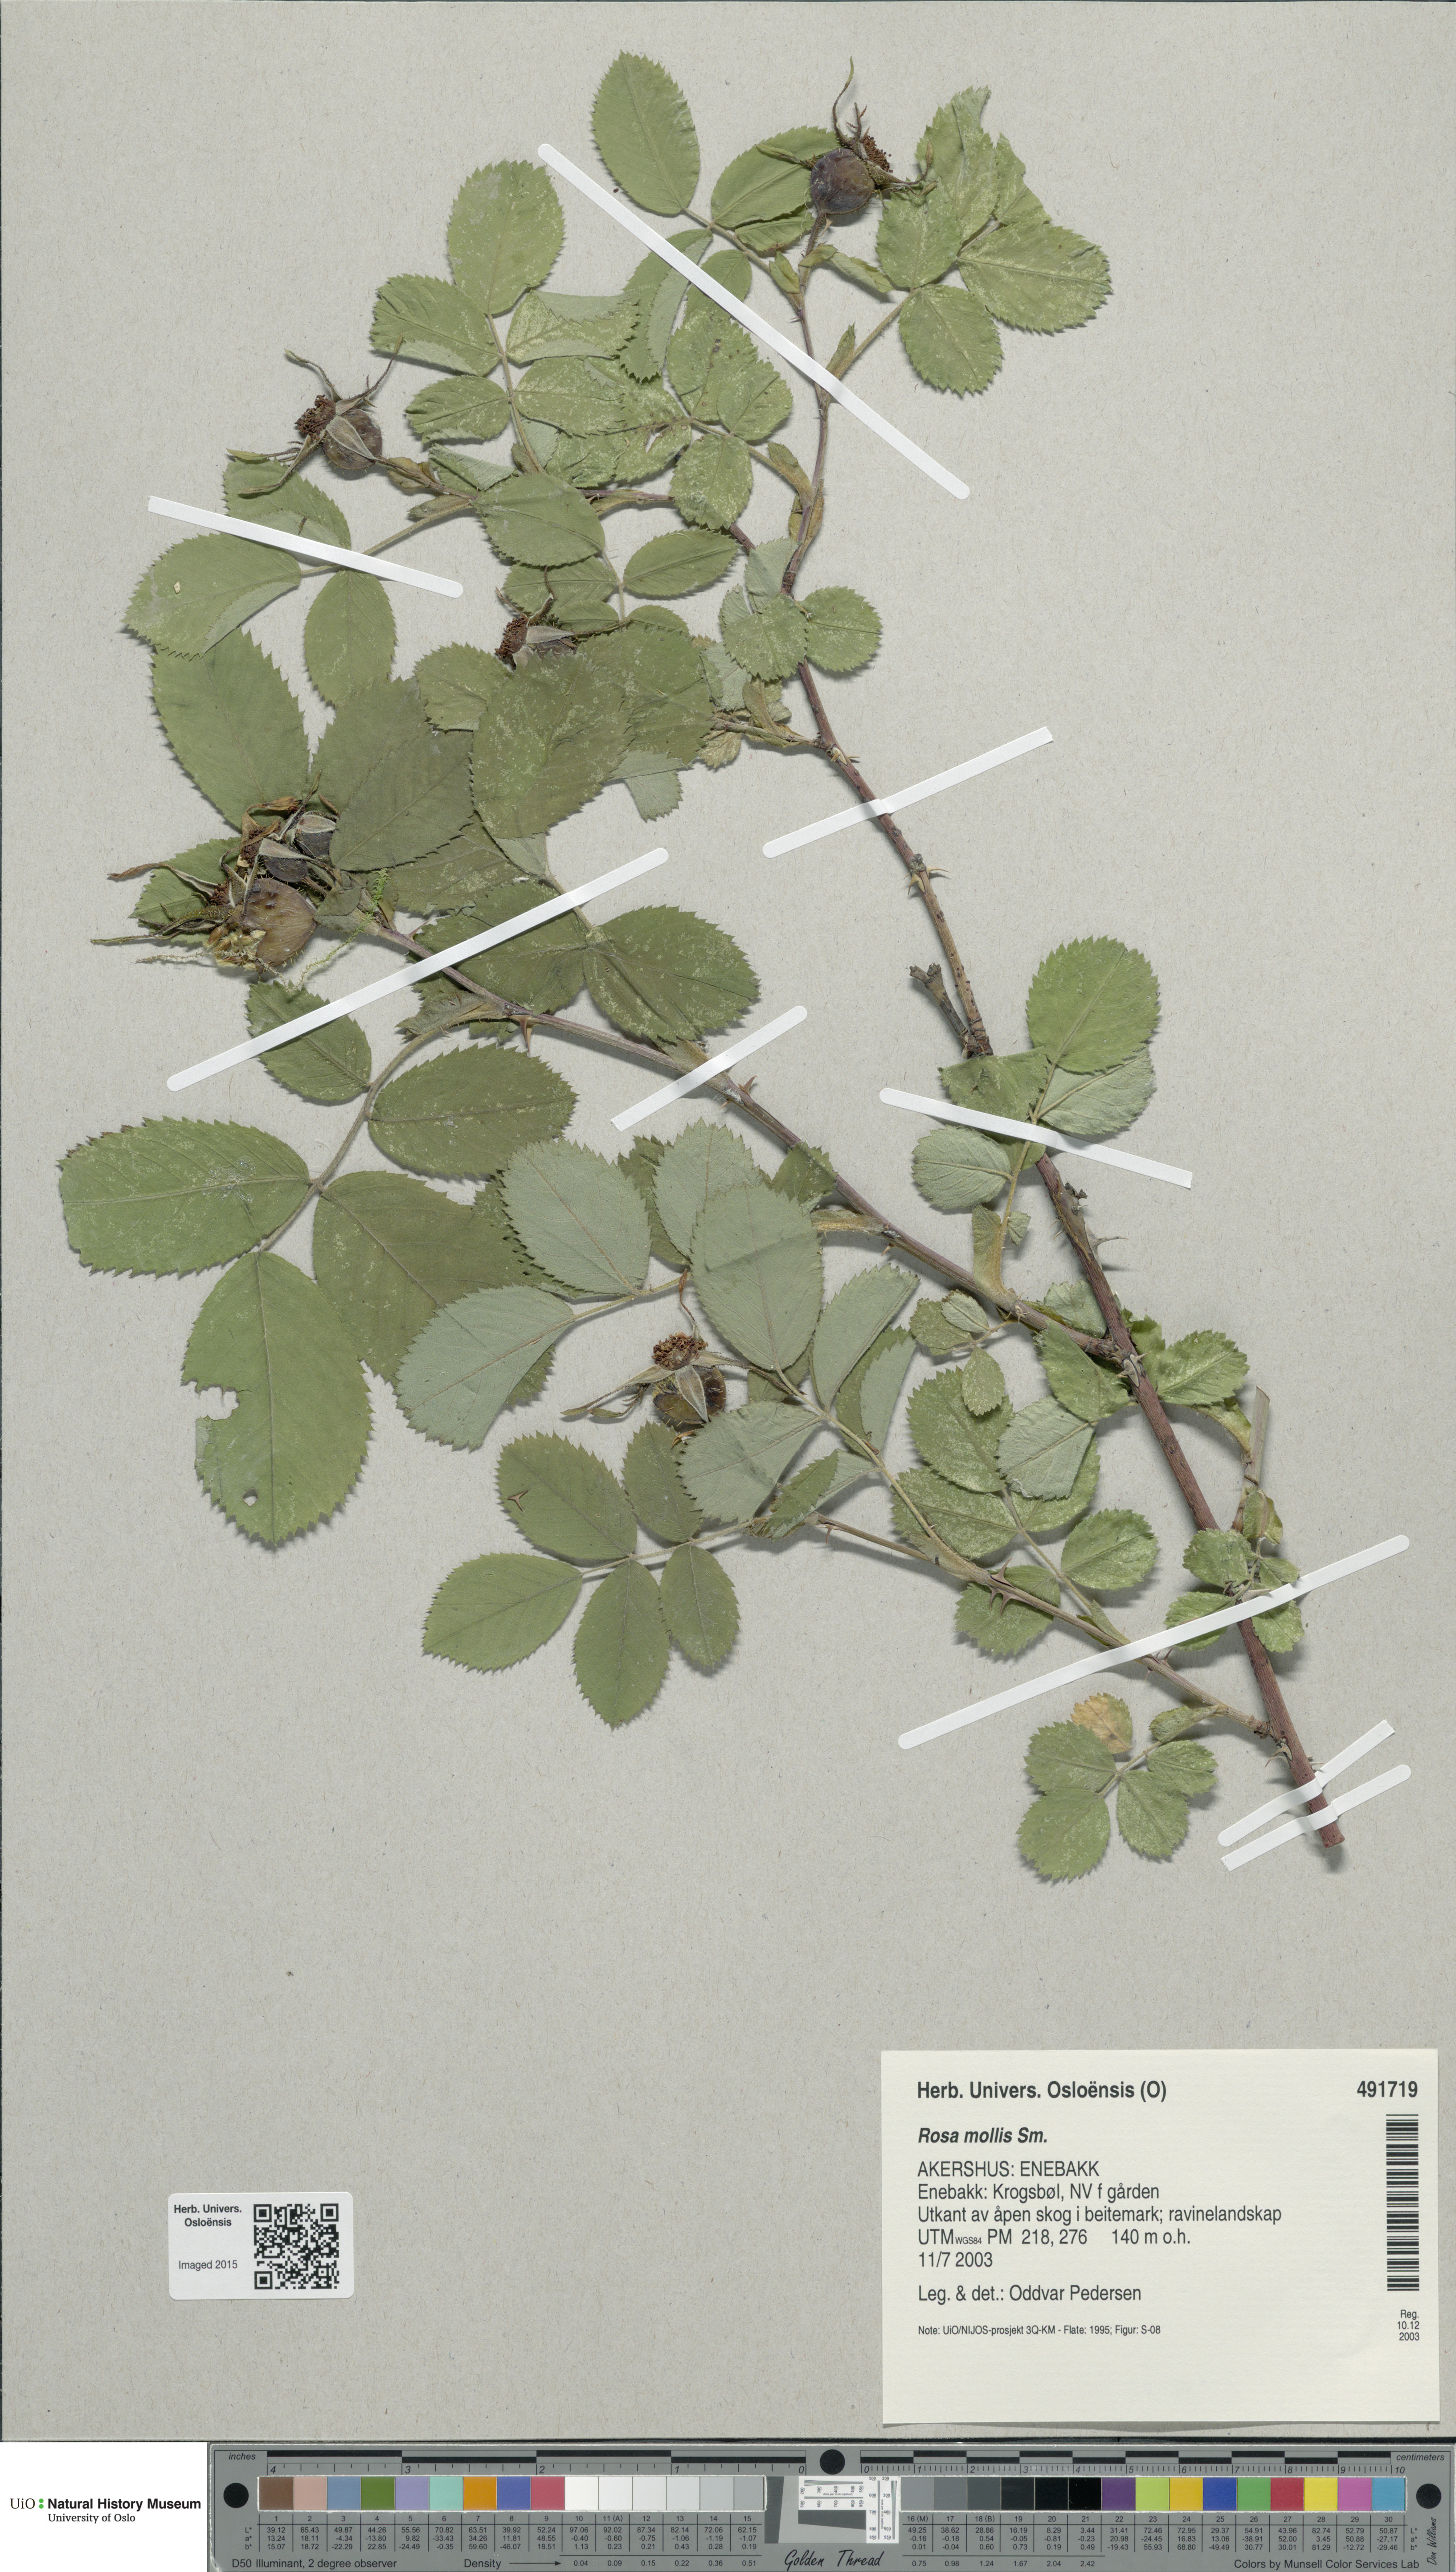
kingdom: Plantae
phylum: Tracheophyta
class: Magnoliopsida
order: Rosales
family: Rosaceae
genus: Rosa
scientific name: Rosa mollis
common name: Rose
